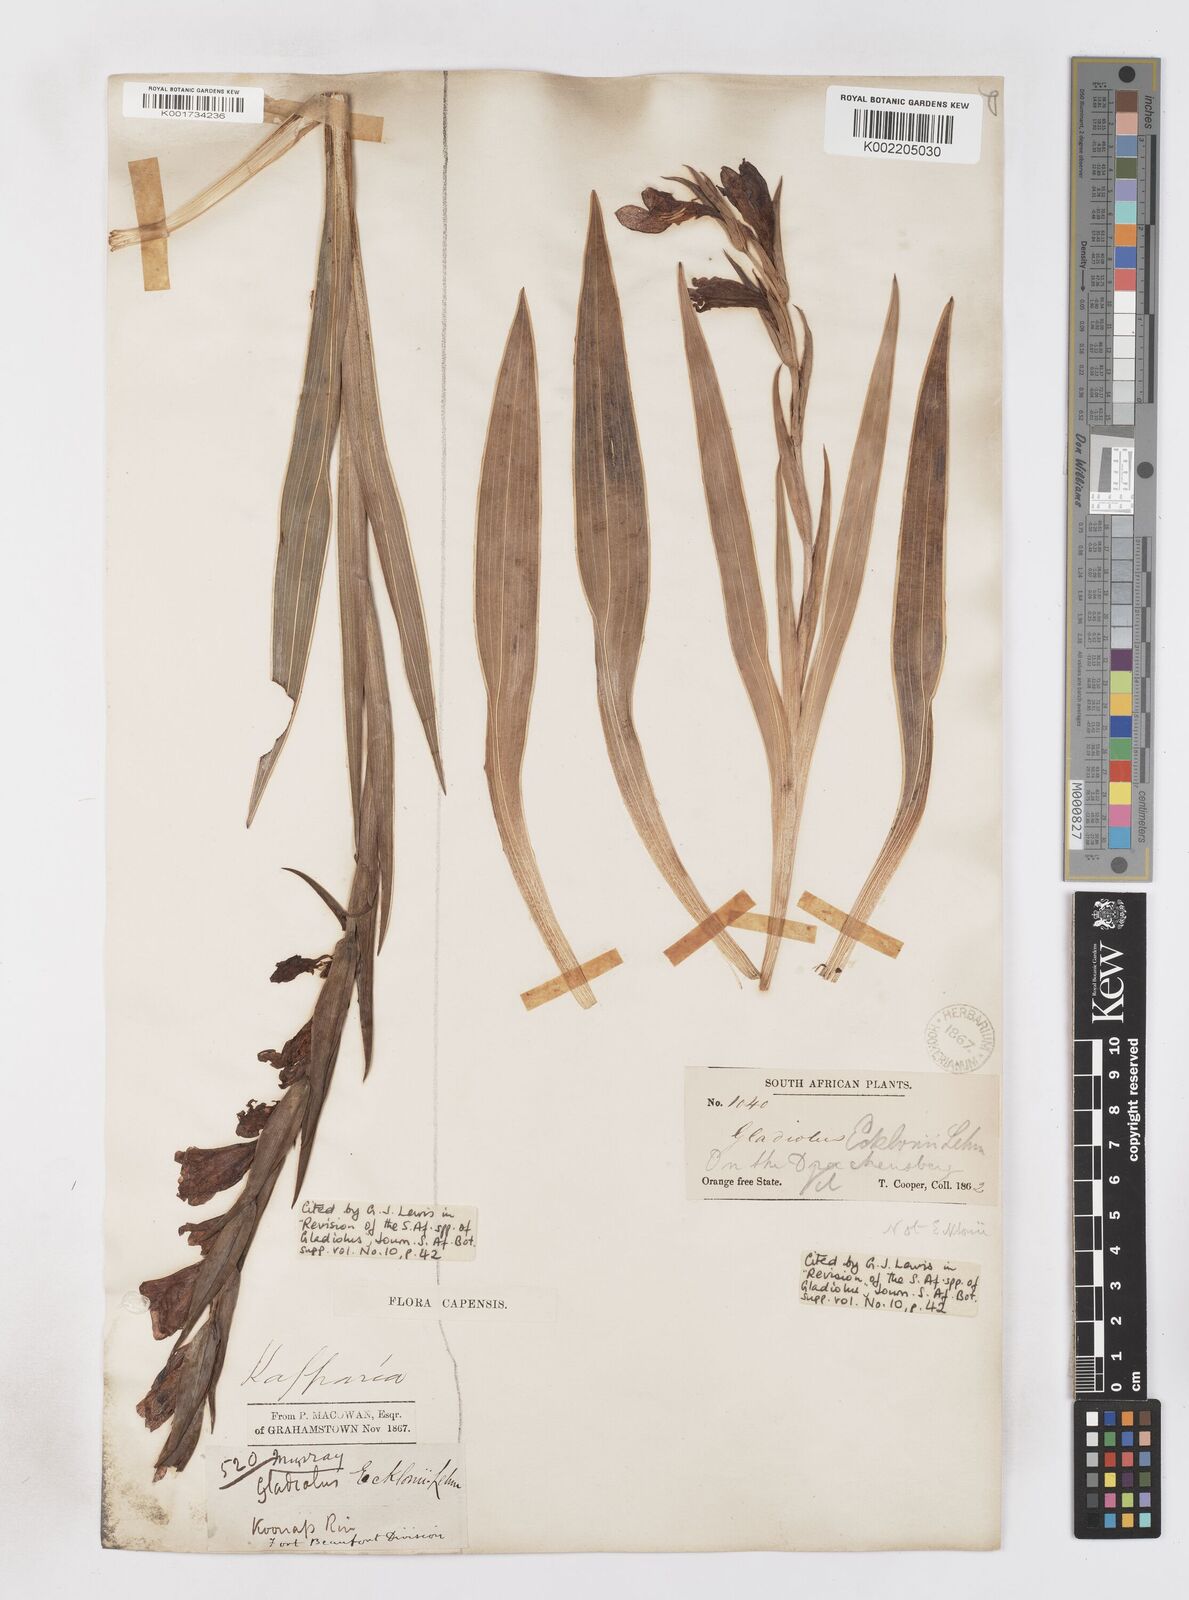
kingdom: Plantae
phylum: Tracheophyta
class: Liliopsida
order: Asparagales
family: Iridaceae
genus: Gladiolus
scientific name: Gladiolus ecklonii
